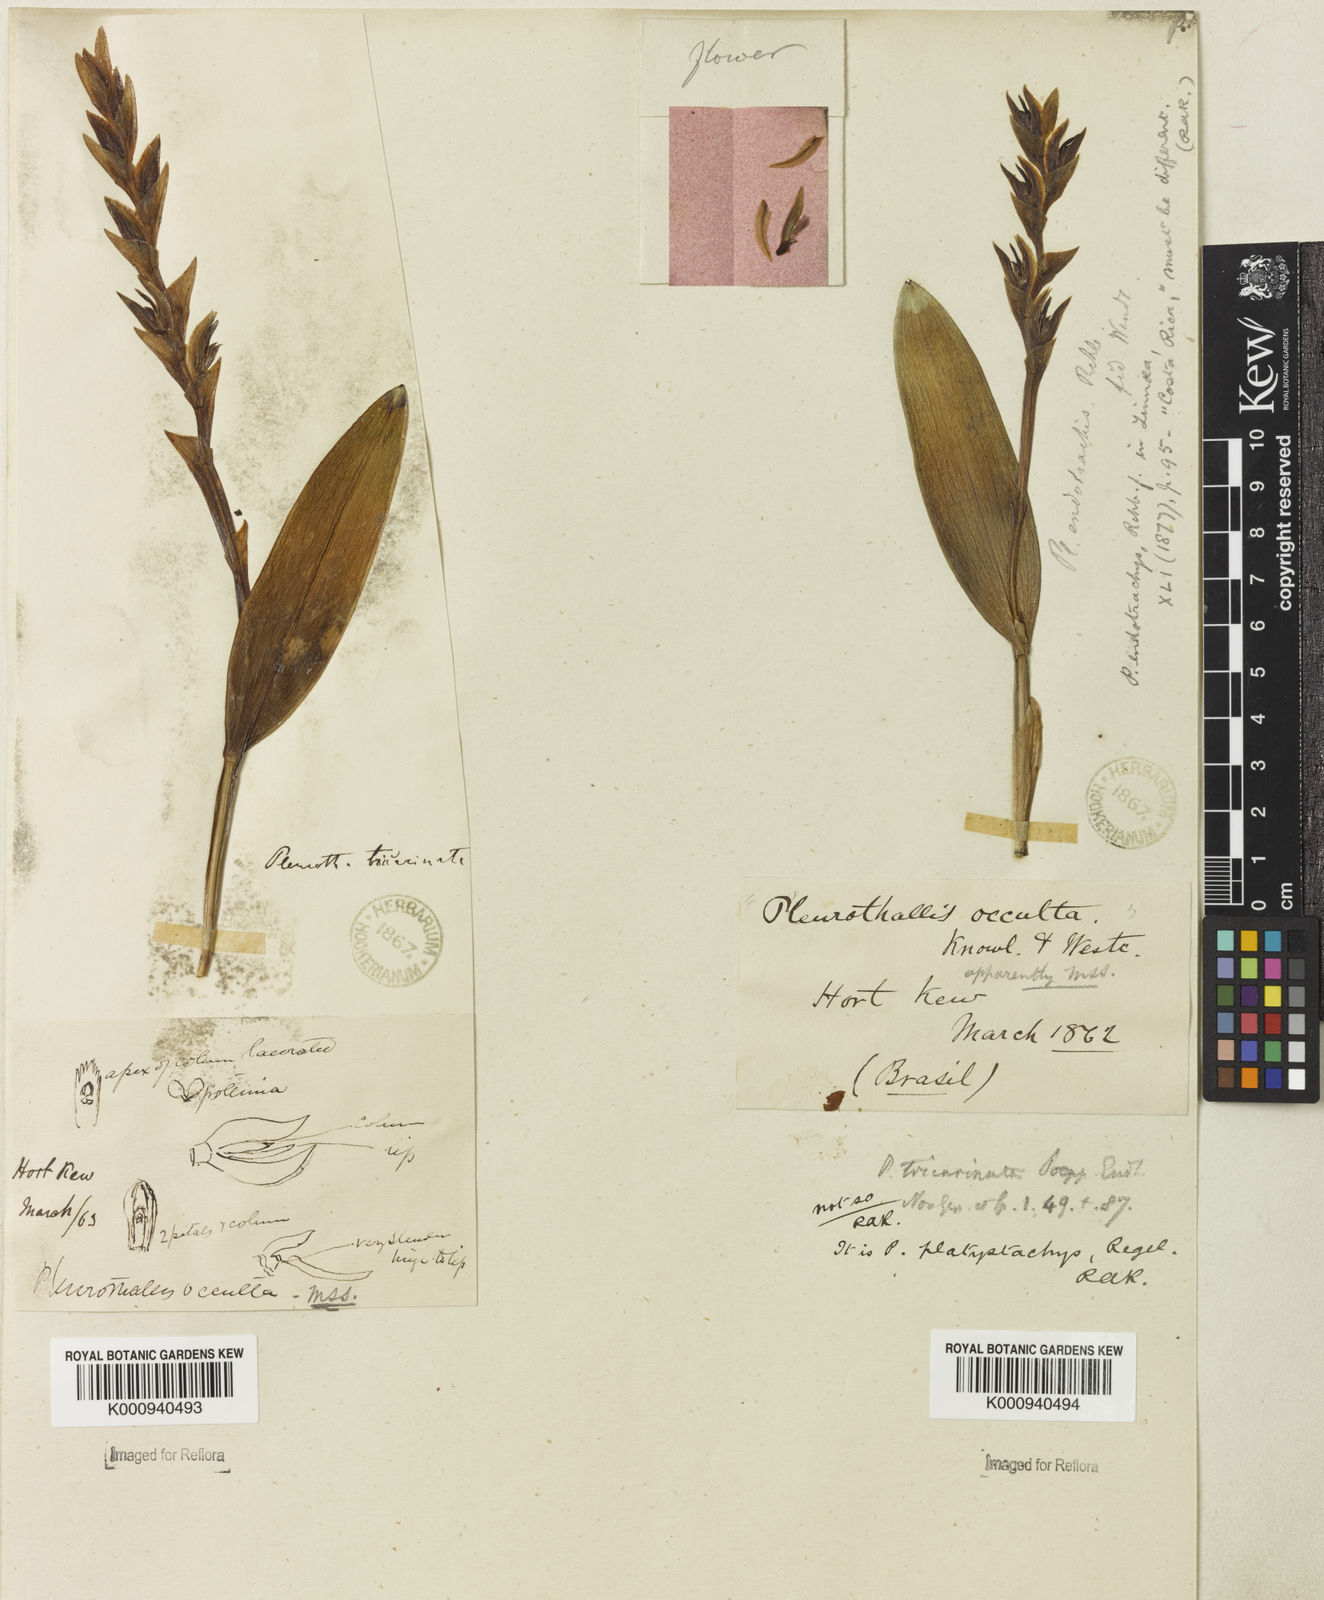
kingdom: Plantae
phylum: Tracheophyta
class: Liliopsida
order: Asparagales
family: Orchidaceae
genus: Acianthera
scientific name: Acianthera tricarinata
